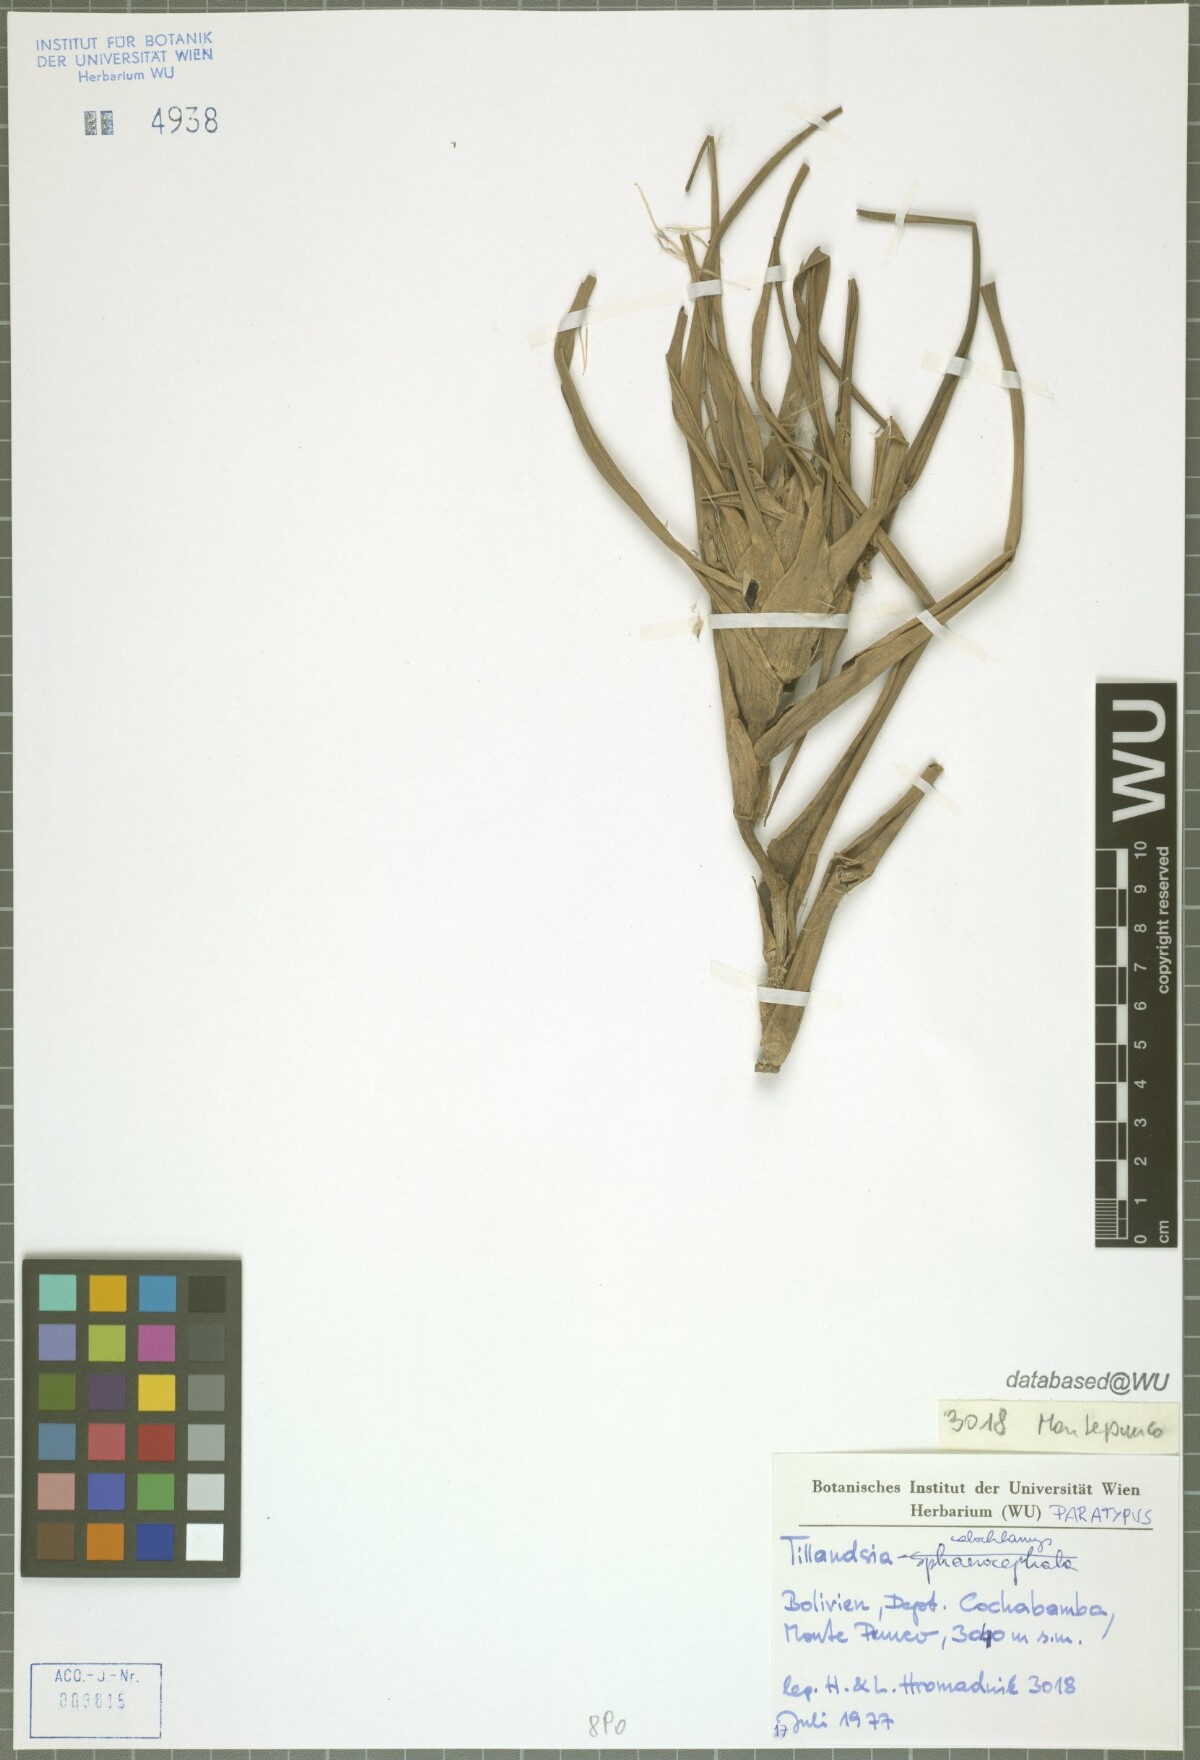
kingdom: Plantae
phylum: Tracheophyta
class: Liliopsida
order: Poales
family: Bromeliaceae
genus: Tillandsia
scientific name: Tillandsia calochlamys
